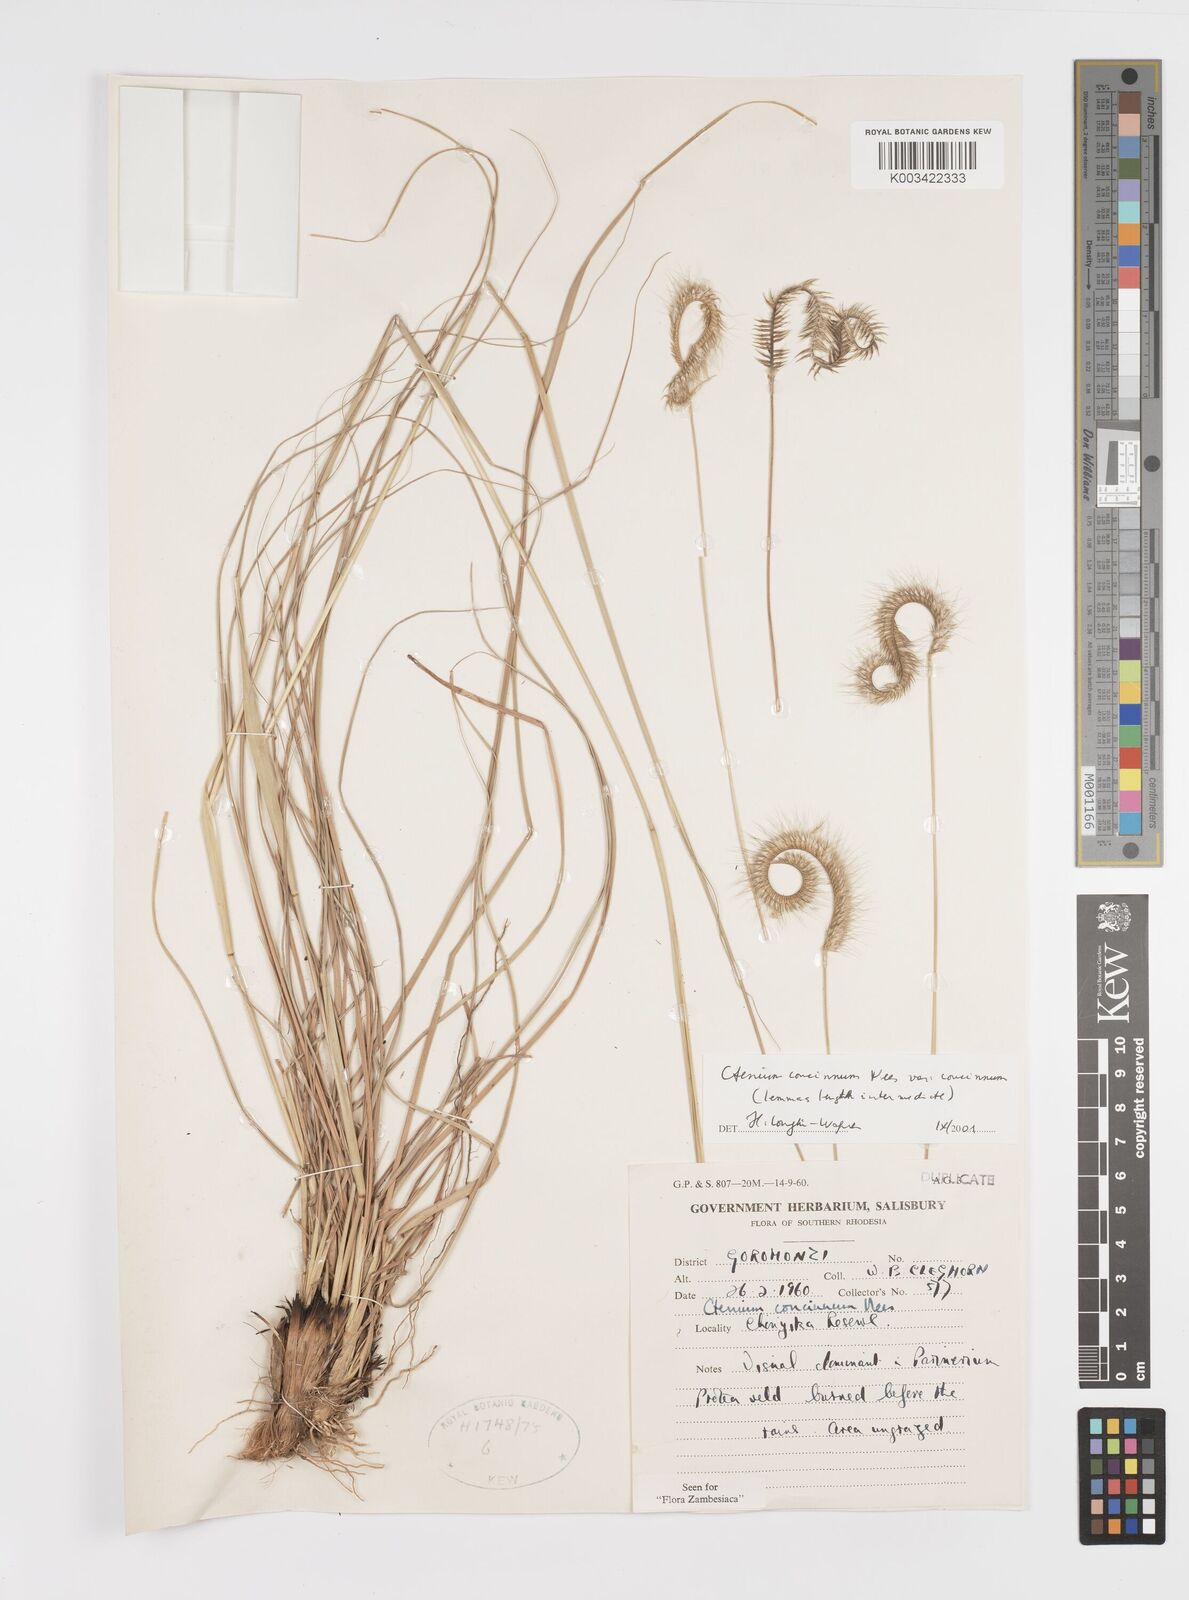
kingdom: Plantae
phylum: Tracheophyta
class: Liliopsida
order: Poales
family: Poaceae
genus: Ctenium
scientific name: Ctenium concinnum
